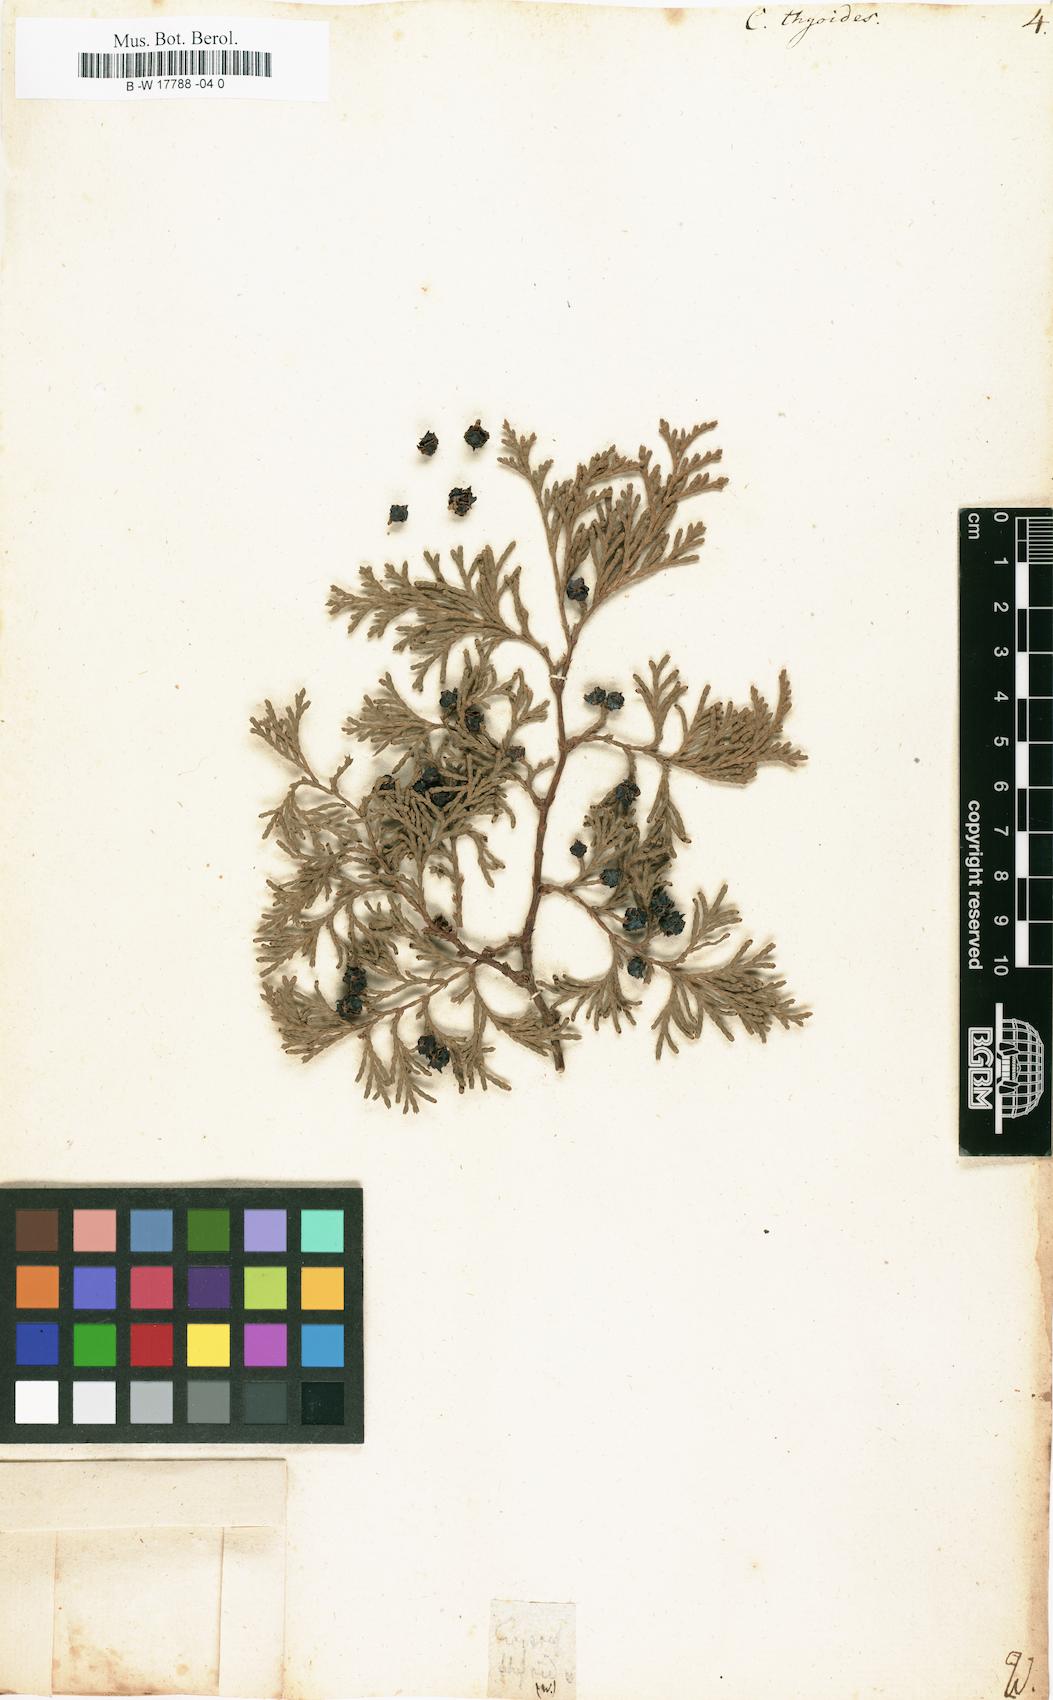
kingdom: Plantae
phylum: Tracheophyta
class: Pinopsida
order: Pinales
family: Cupressaceae
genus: Cupressus
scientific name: Cupressus thyoides
